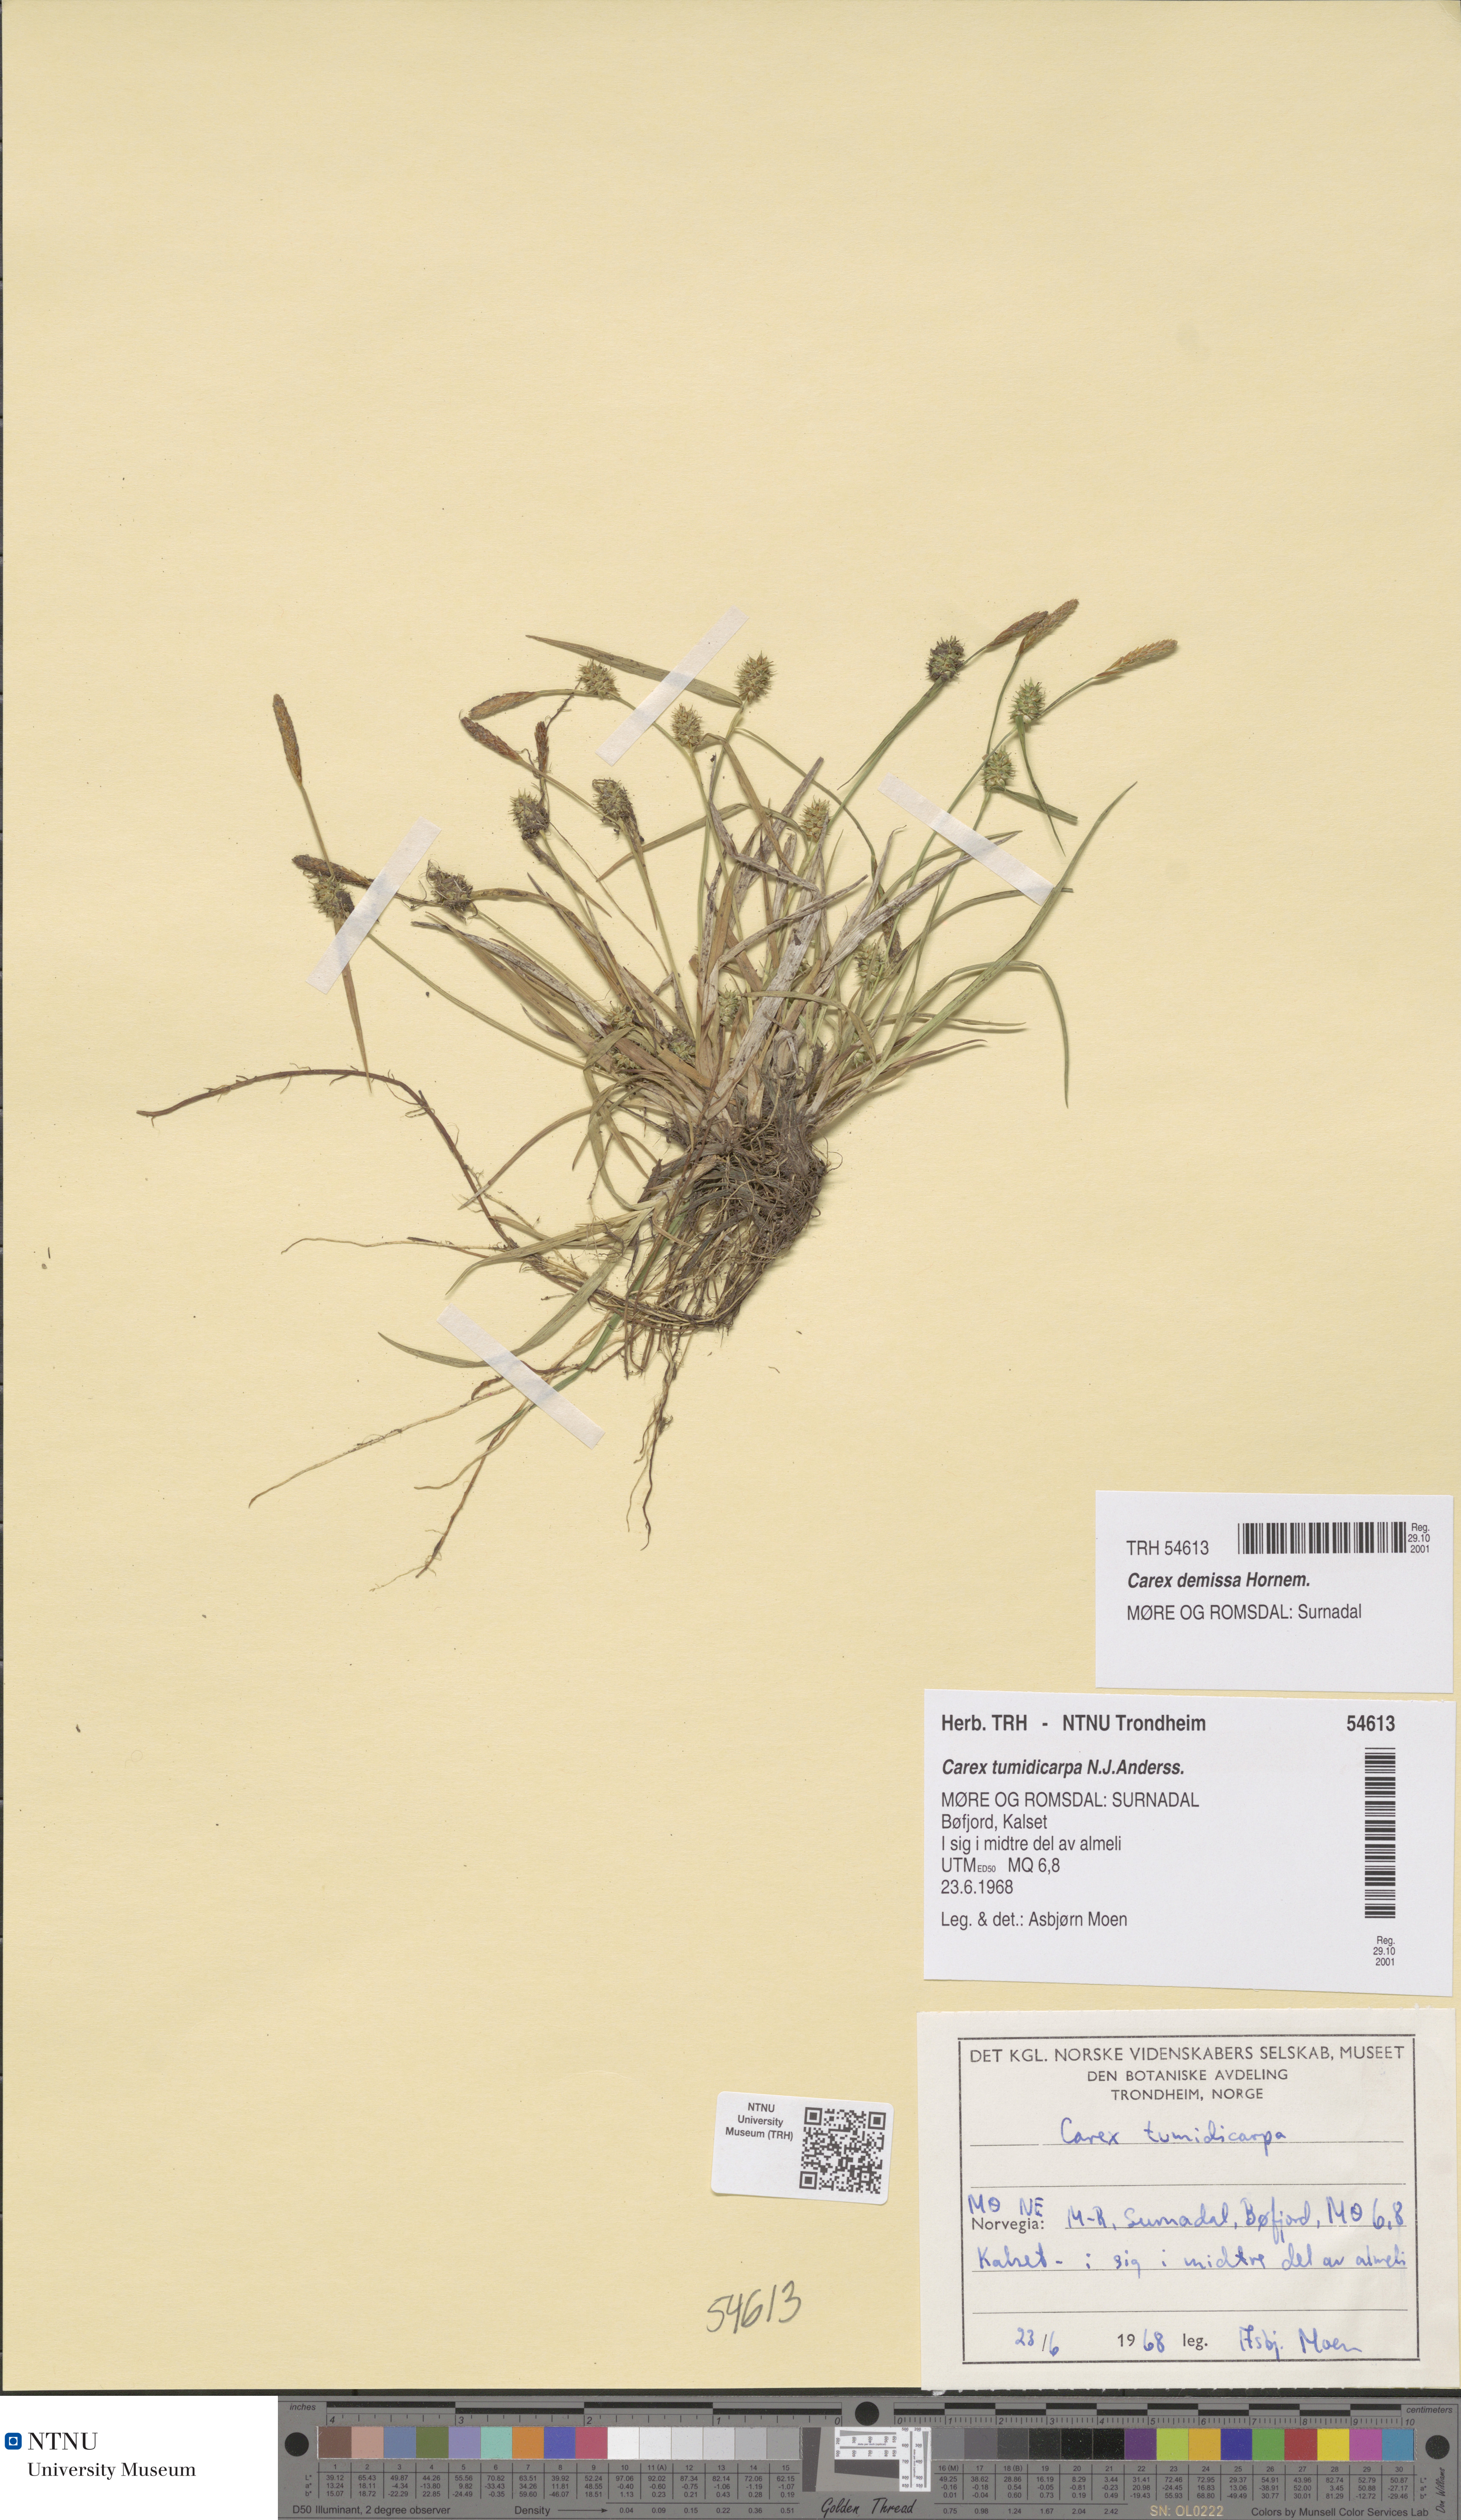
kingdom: Plantae
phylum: Tracheophyta
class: Liliopsida
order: Poales
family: Cyperaceae
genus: Carex
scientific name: Carex demissa
